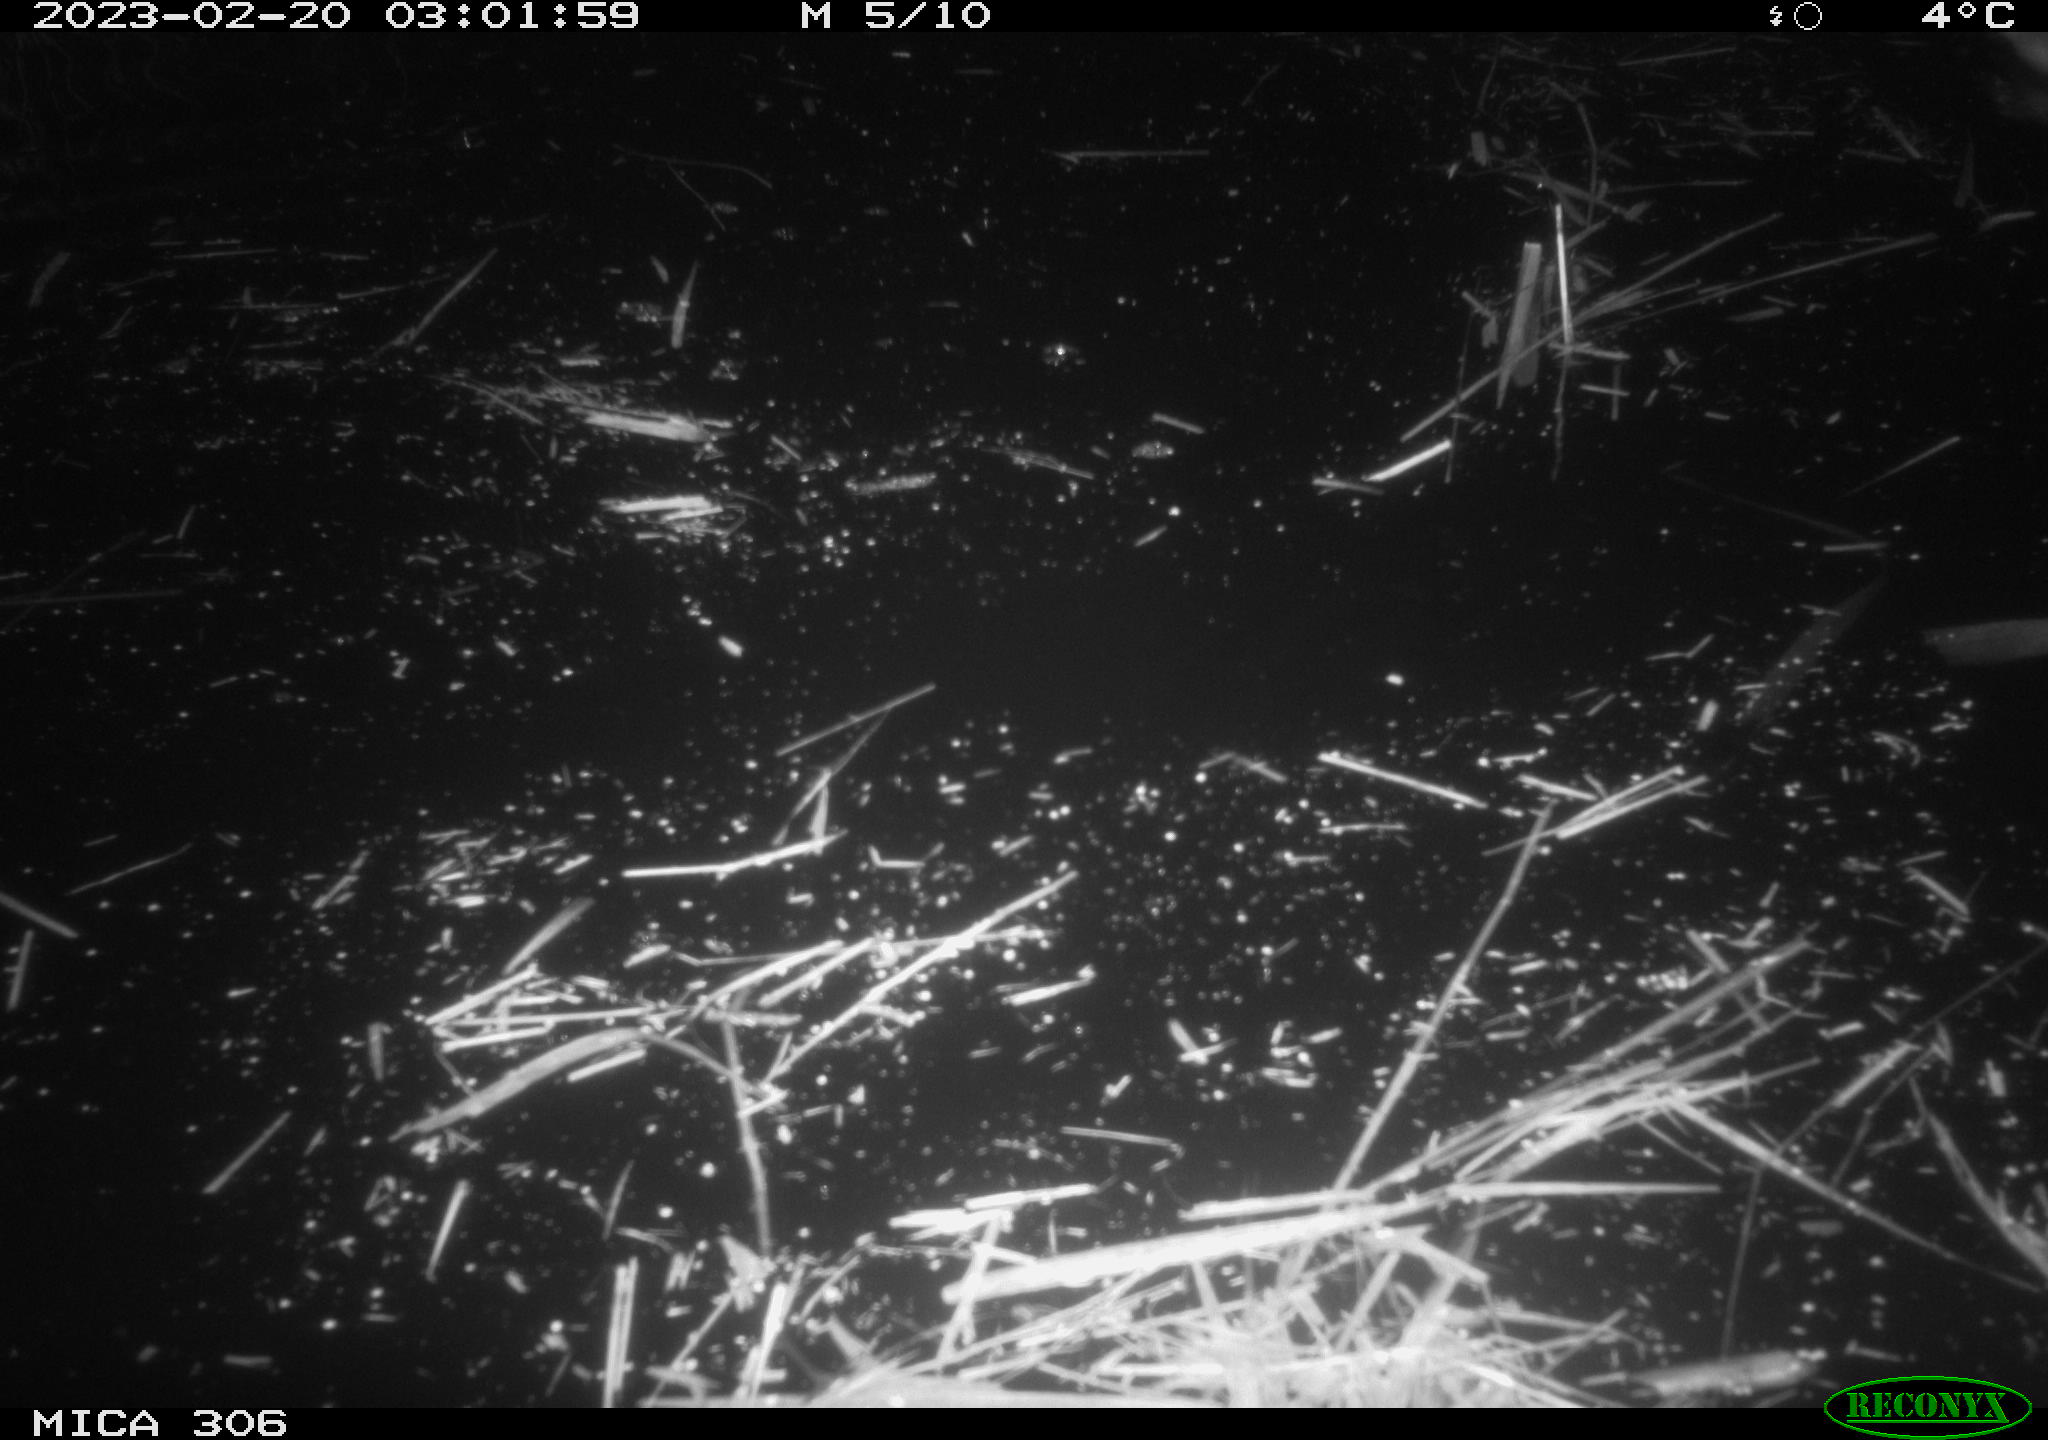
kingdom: Animalia
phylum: Chordata
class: Mammalia
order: Rodentia
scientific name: Rodentia
